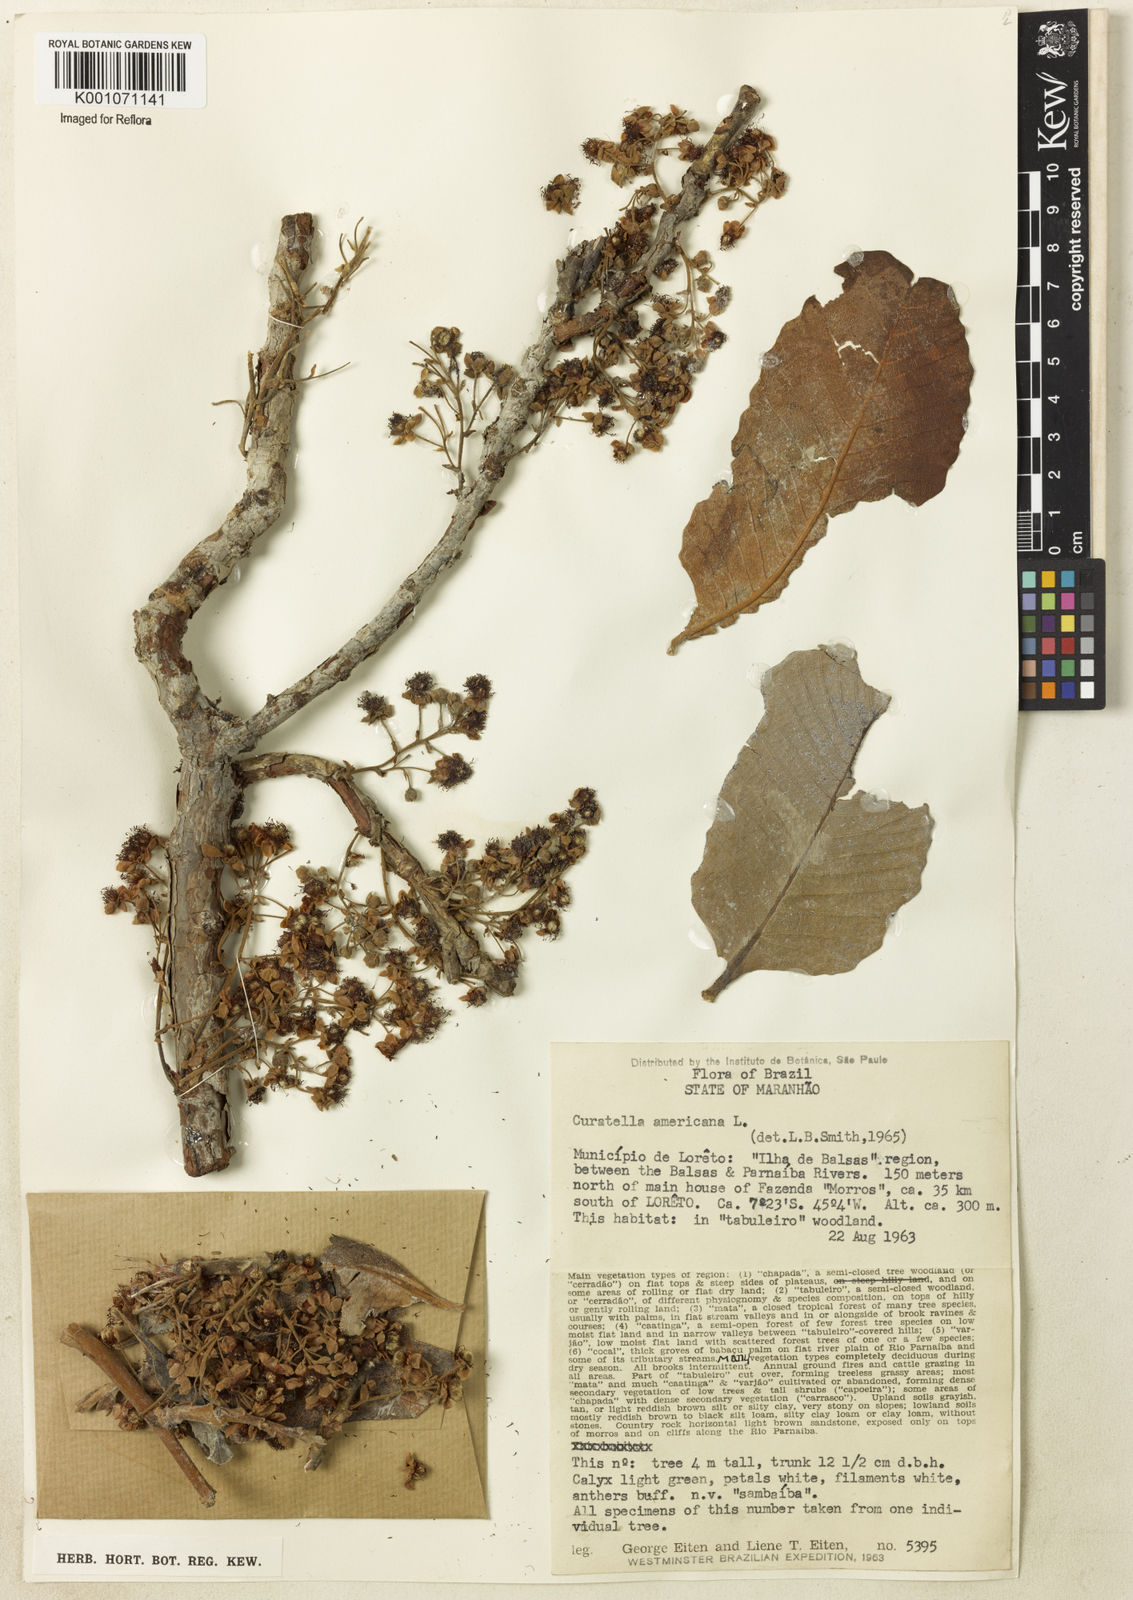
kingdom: Plantae
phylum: Tracheophyta
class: Magnoliopsida
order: Dilleniales
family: Dilleniaceae
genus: Curatella
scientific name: Curatella americana
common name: Sandpaper tree
